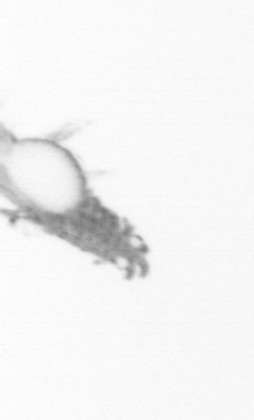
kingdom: Animalia
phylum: Annelida
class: Polychaeta
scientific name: Polychaeta
